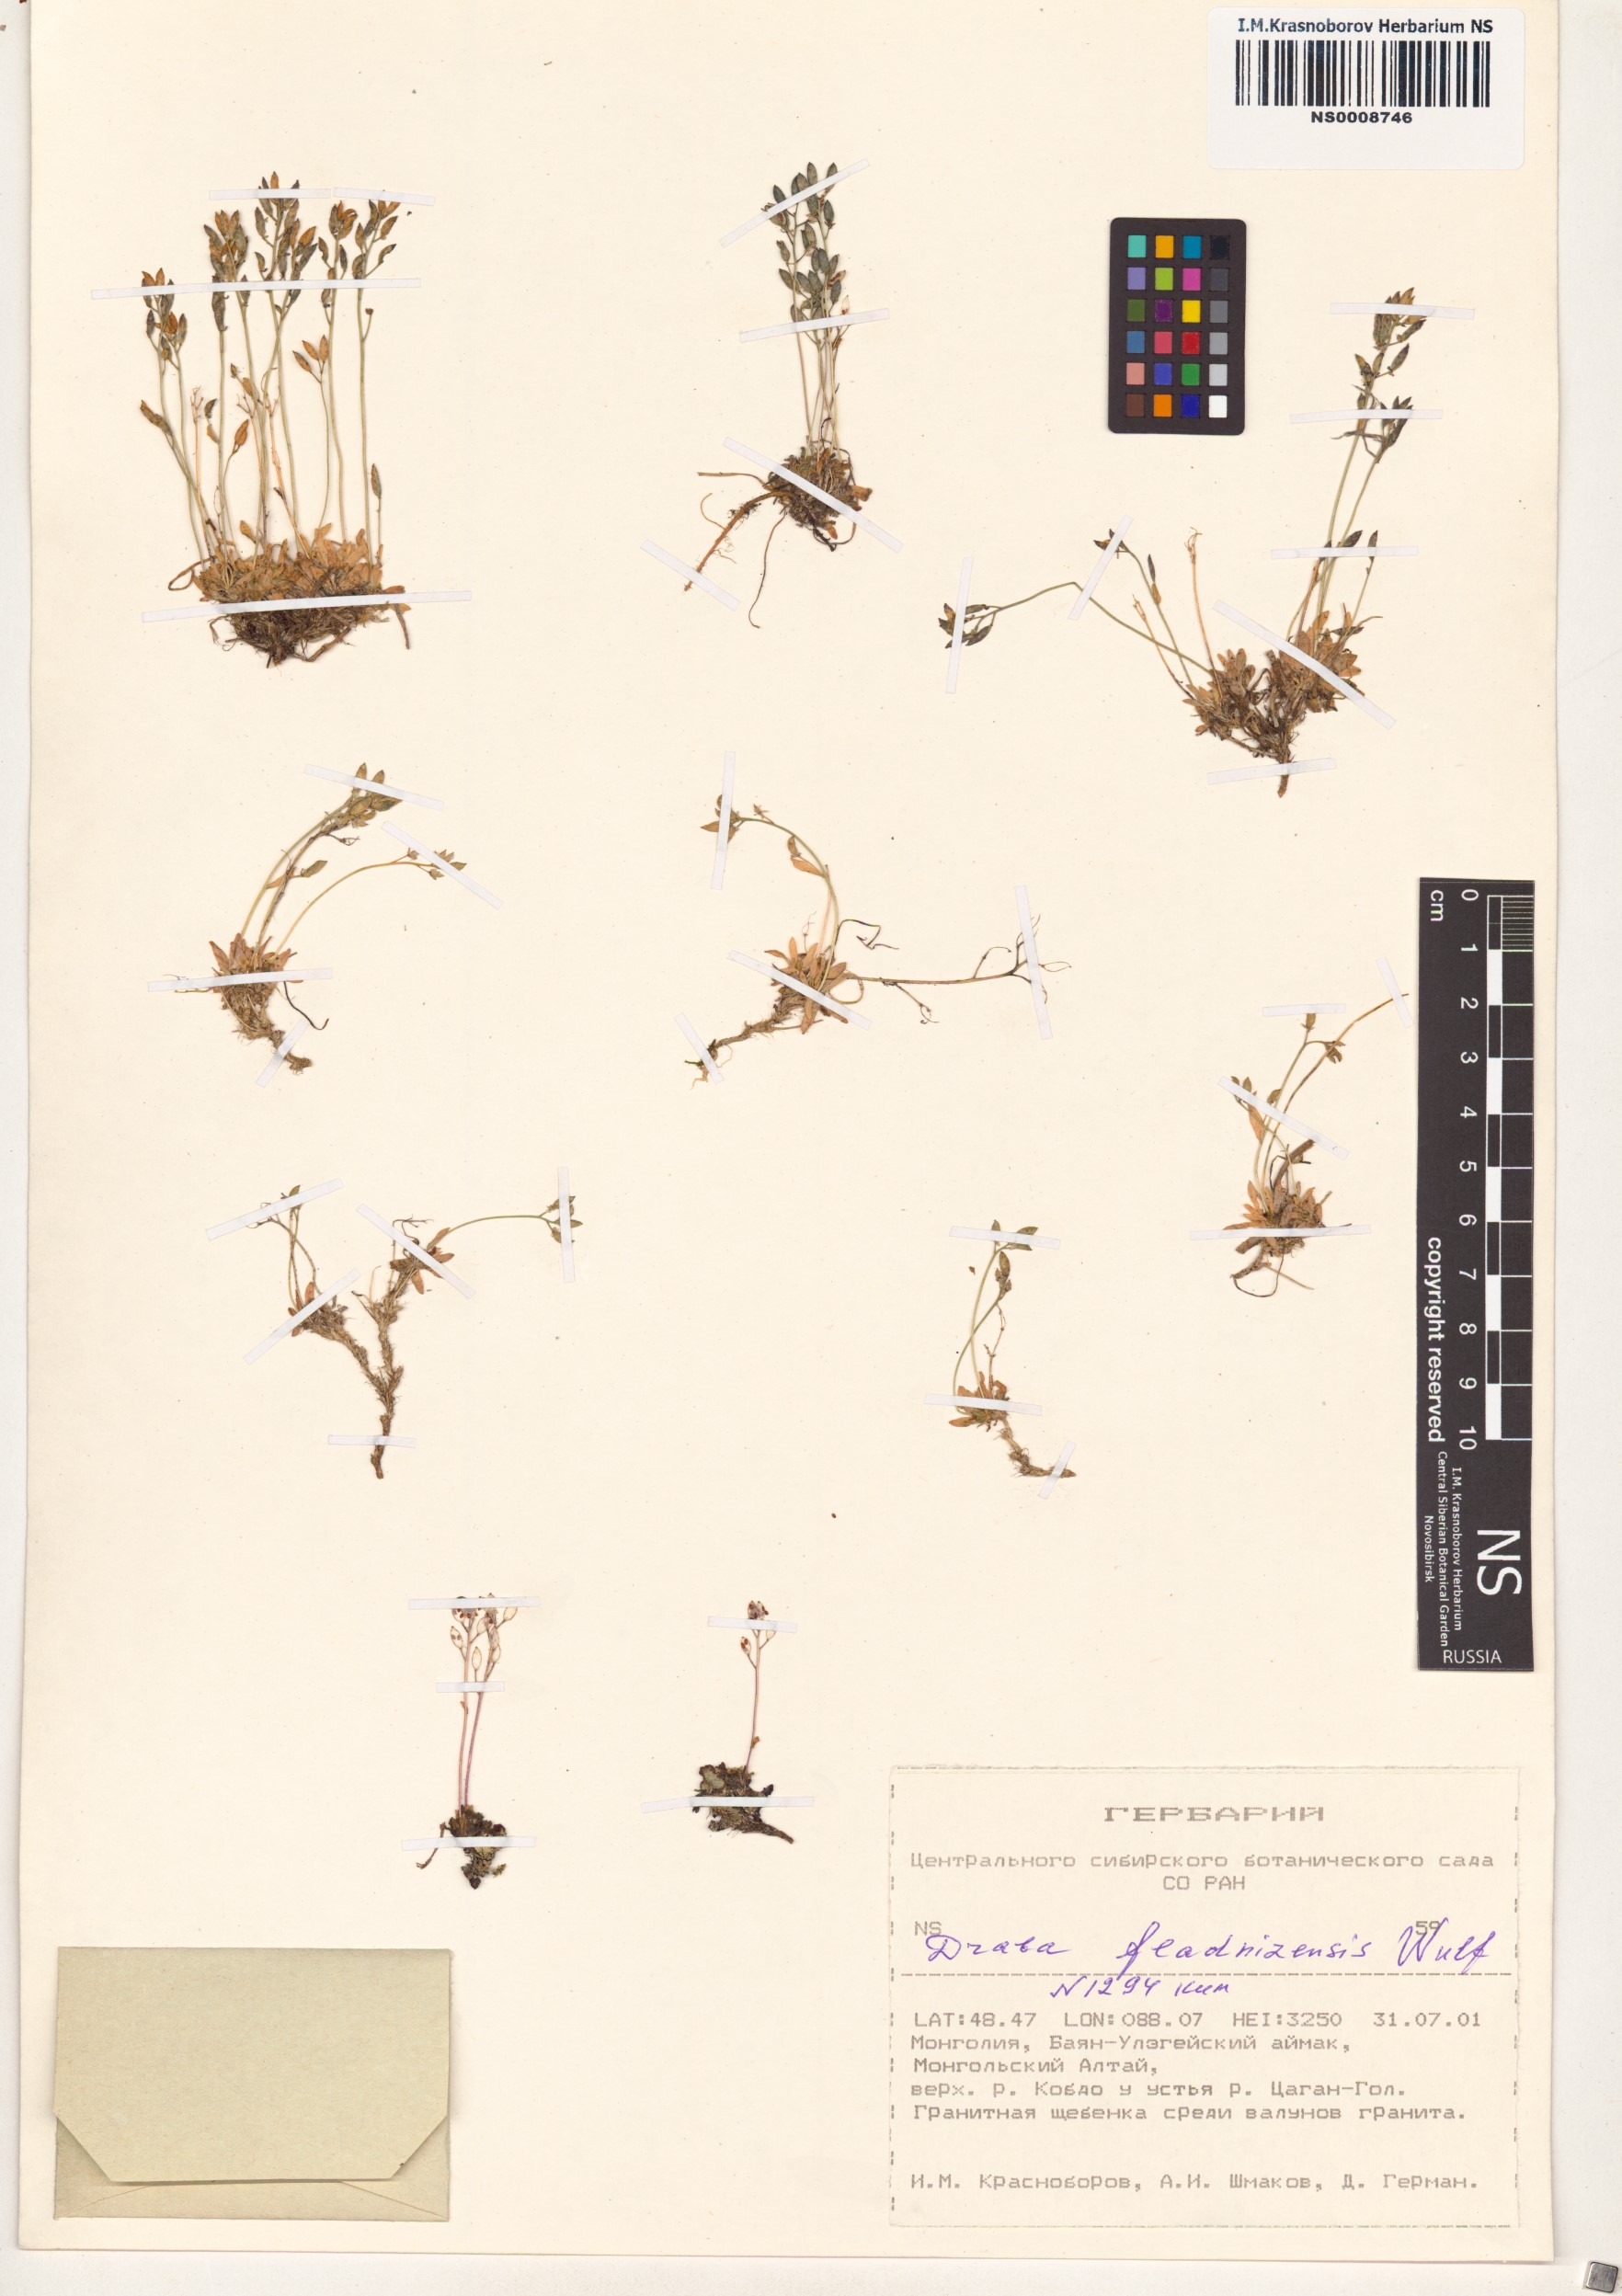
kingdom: Plantae
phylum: Tracheophyta
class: Magnoliopsida
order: Brassicales
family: Brassicaceae
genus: Draba
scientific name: Draba fladnizensis
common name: Austrian draba
